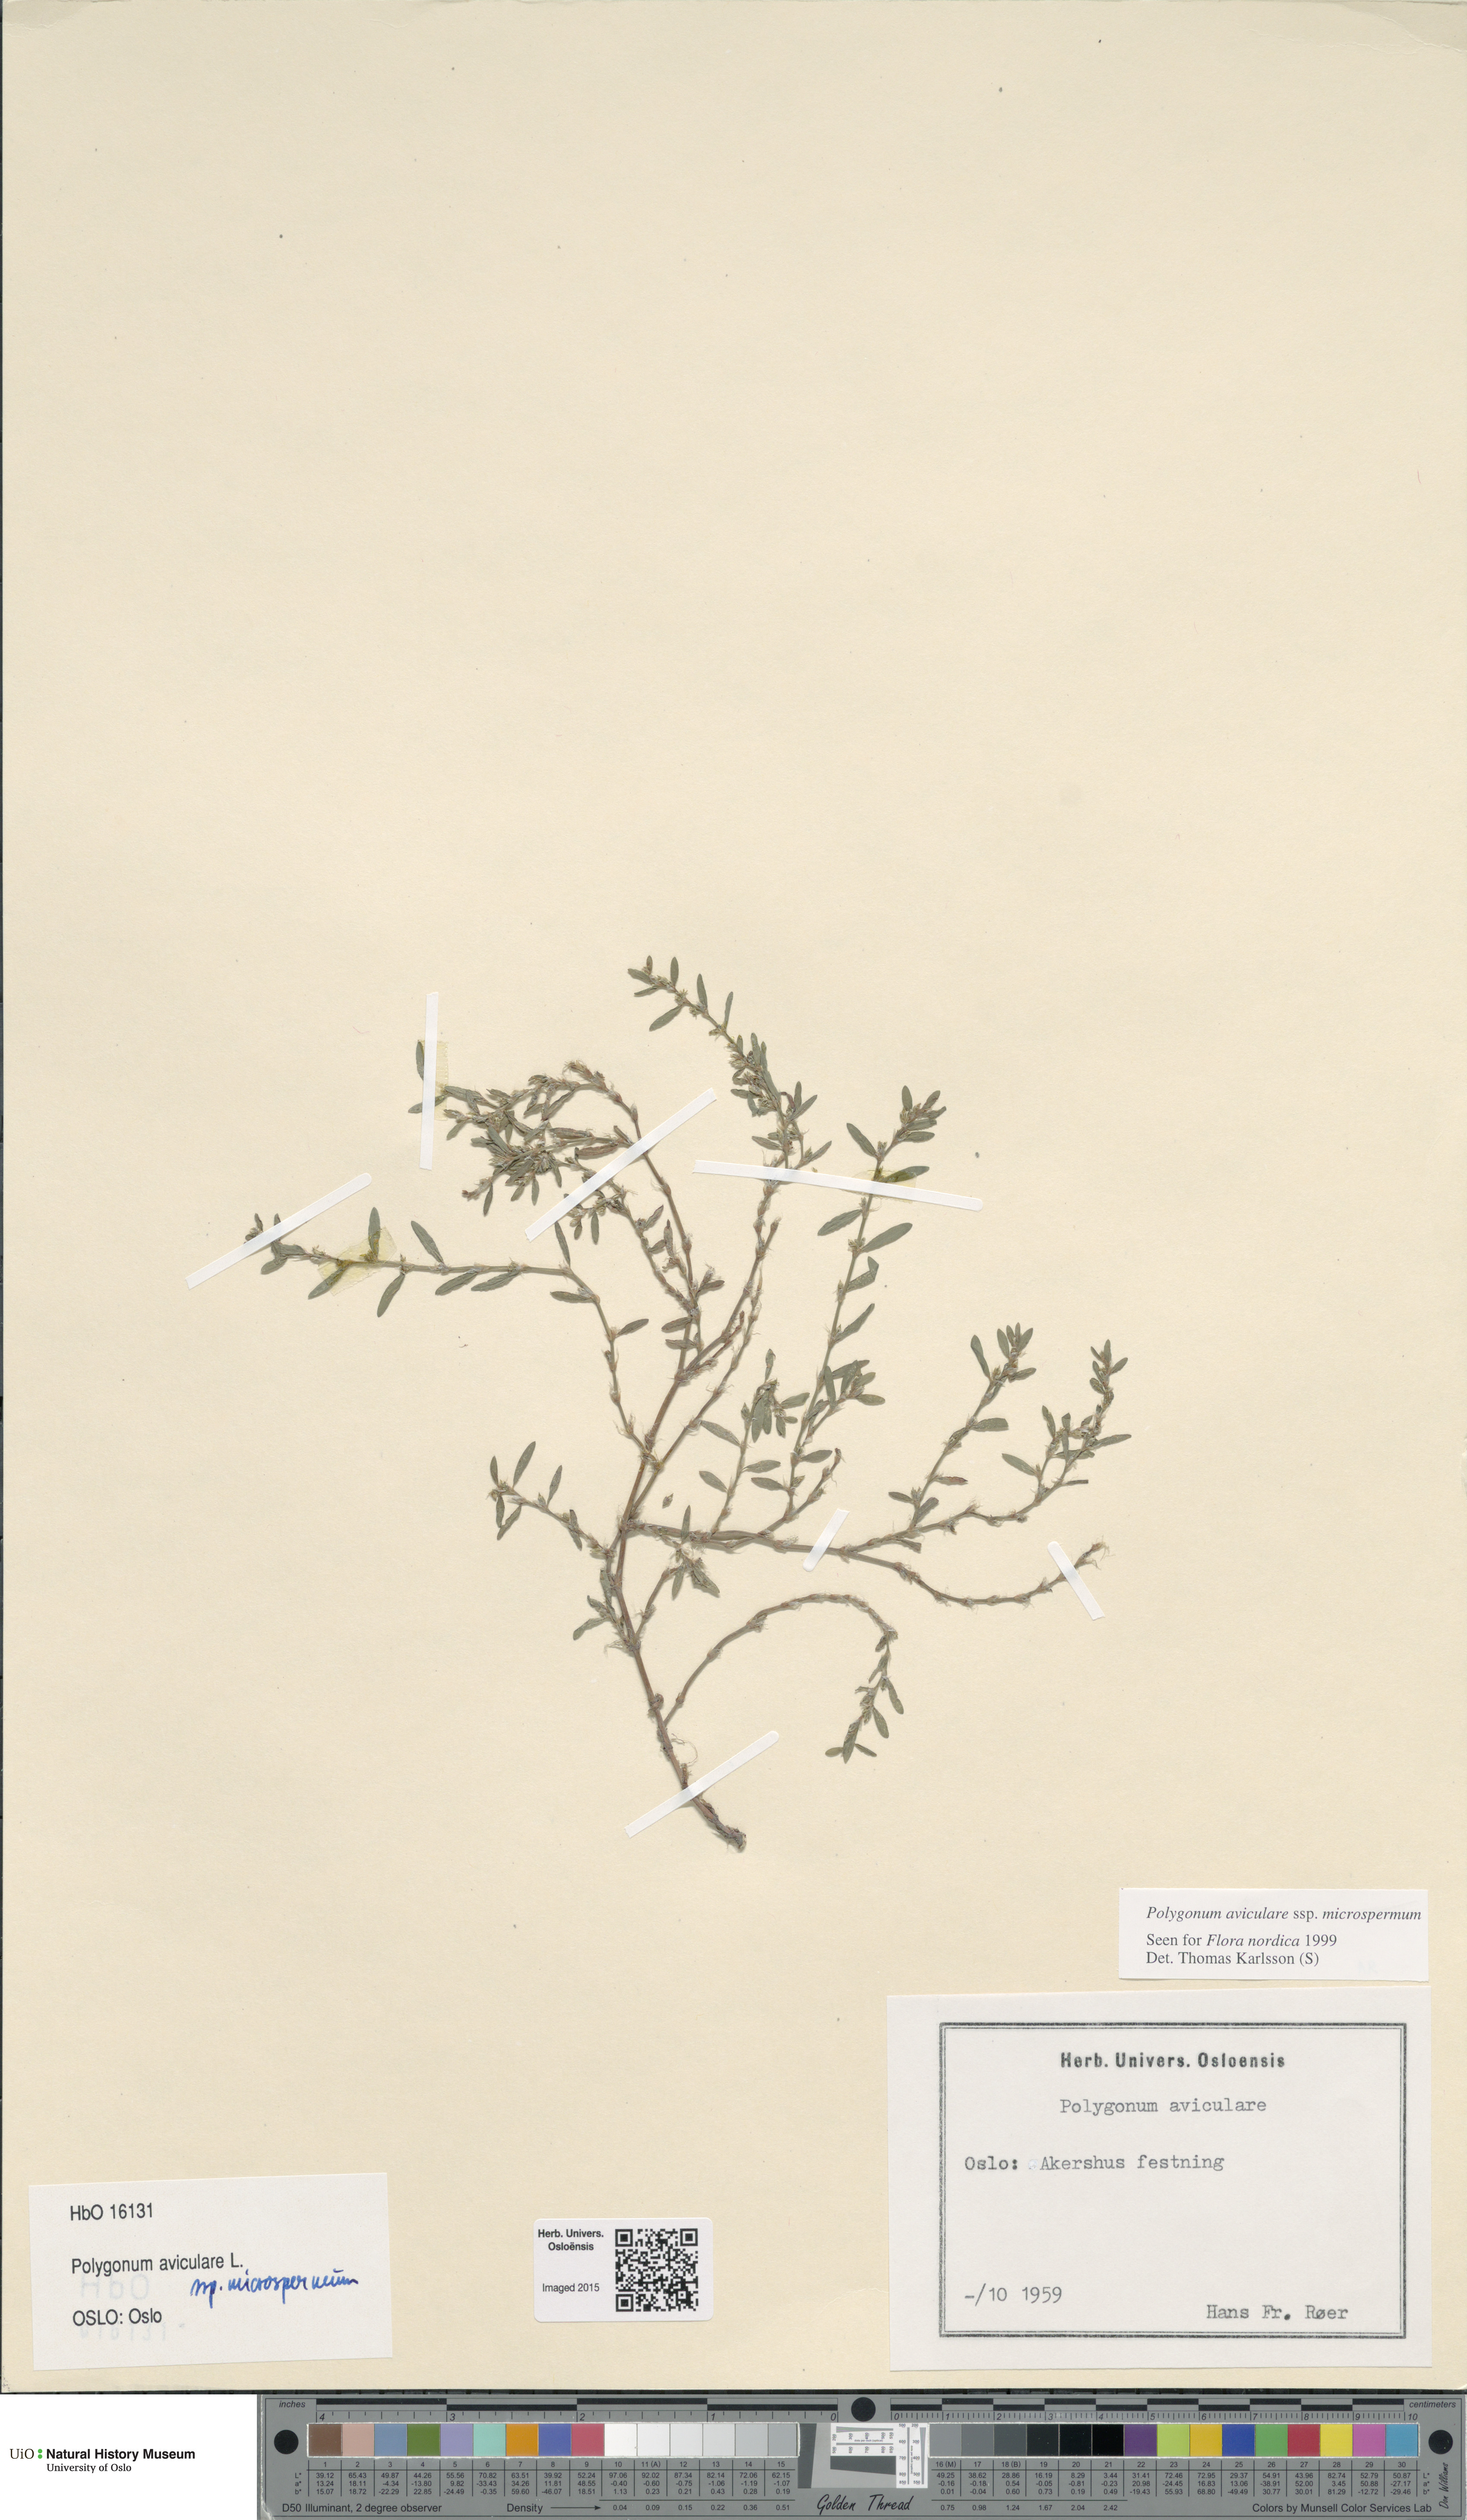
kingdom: Plantae
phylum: Tracheophyta
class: Magnoliopsida
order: Caryophyllales
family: Polygonaceae
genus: Polygonum
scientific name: Polygonum arenastrum
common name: Equal-leaved knotgrass
